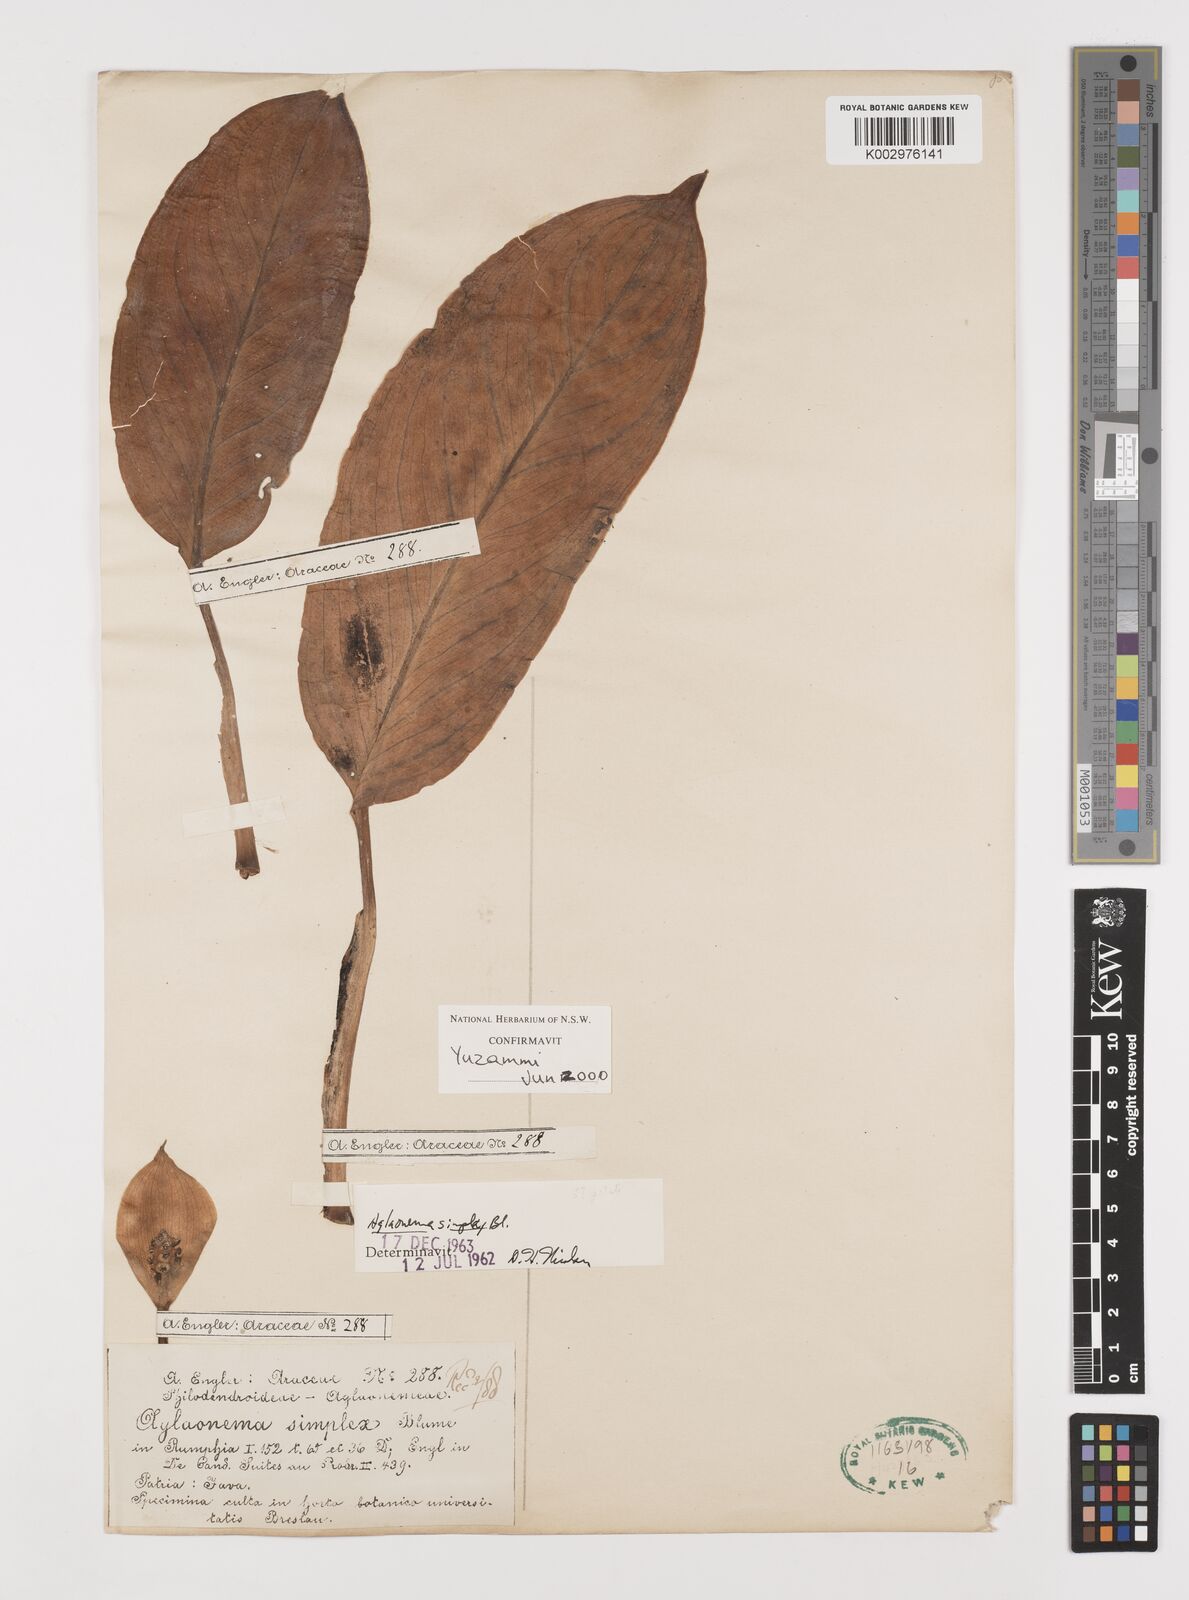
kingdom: Plantae
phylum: Tracheophyta
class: Liliopsida
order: Alismatales
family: Araceae
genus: Aglaonema
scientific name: Aglaonema simplex
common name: Malayan-sword
